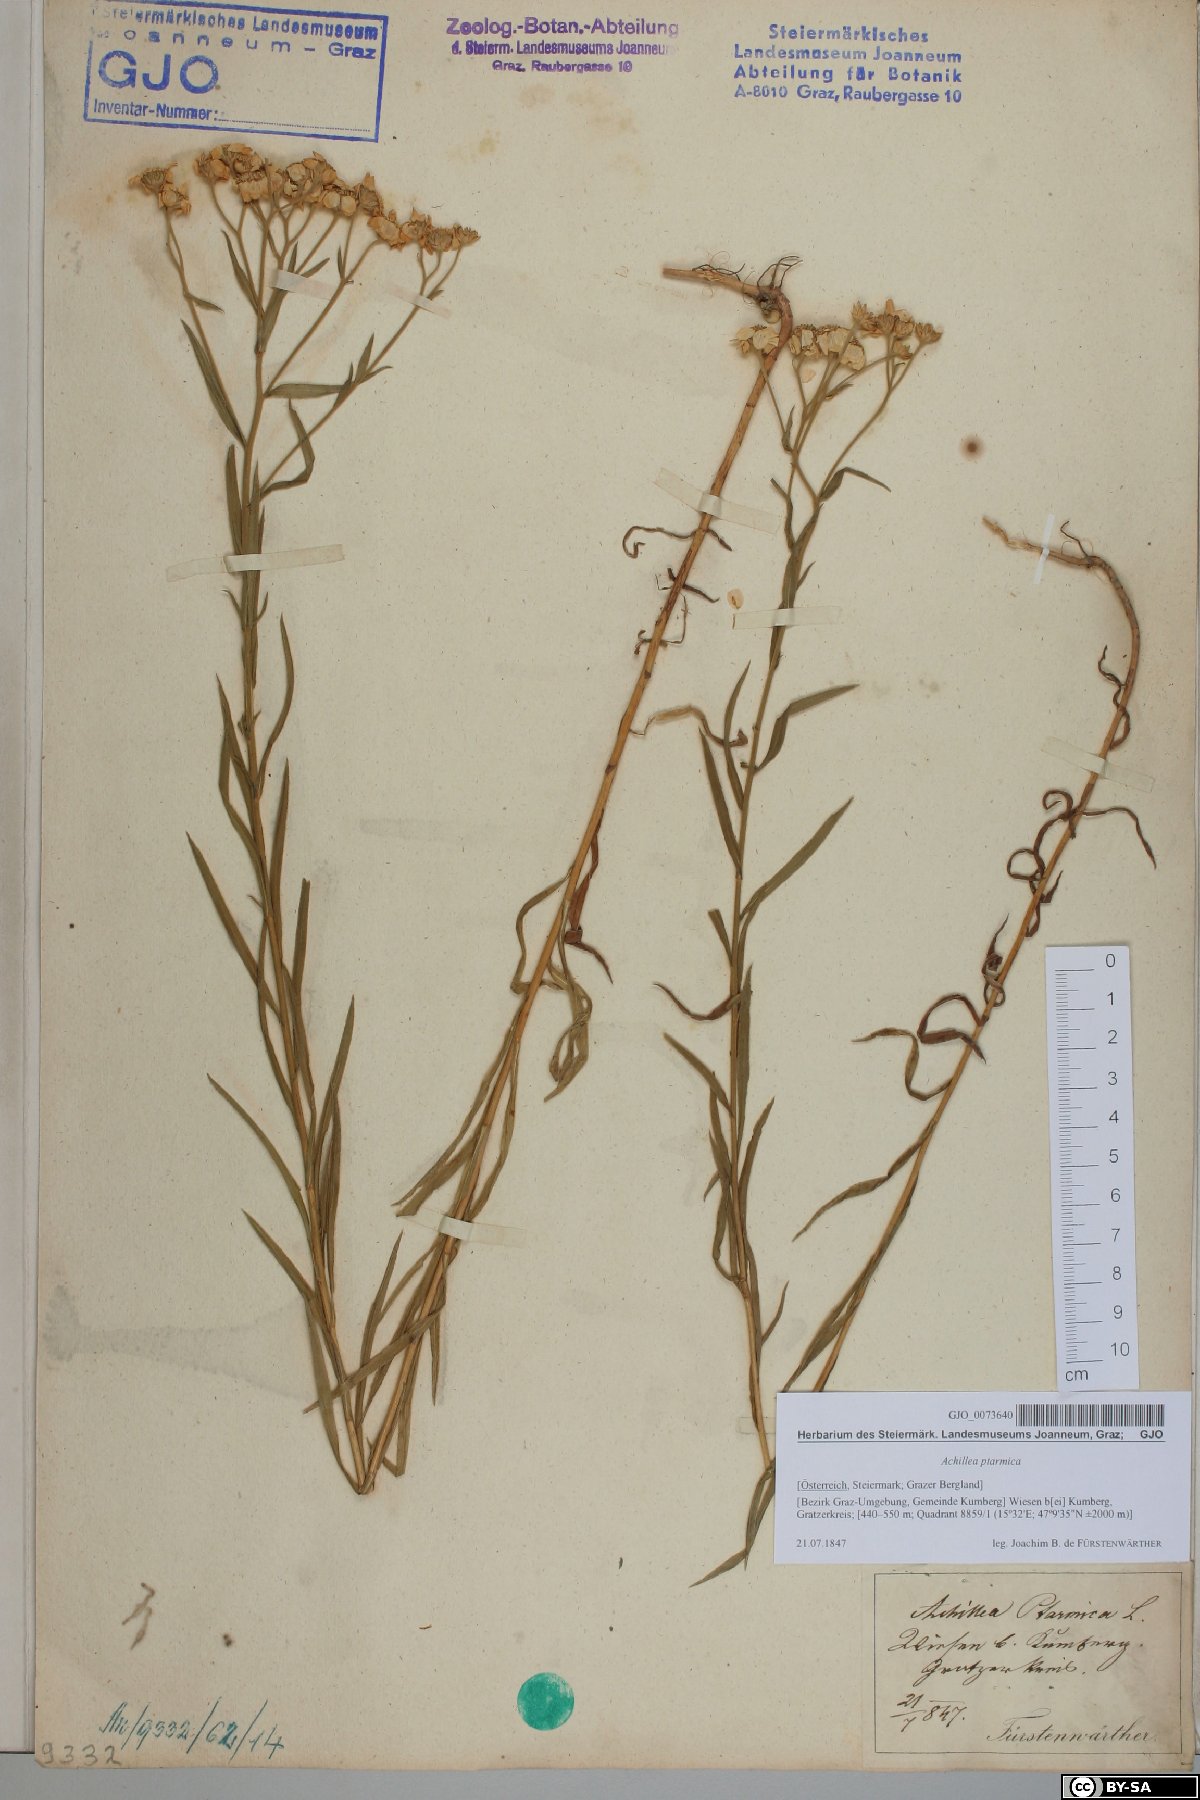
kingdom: Plantae
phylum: Tracheophyta
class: Magnoliopsida
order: Asterales
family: Asteraceae
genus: Achillea
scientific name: Achillea ptarmica
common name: Sneezeweed
